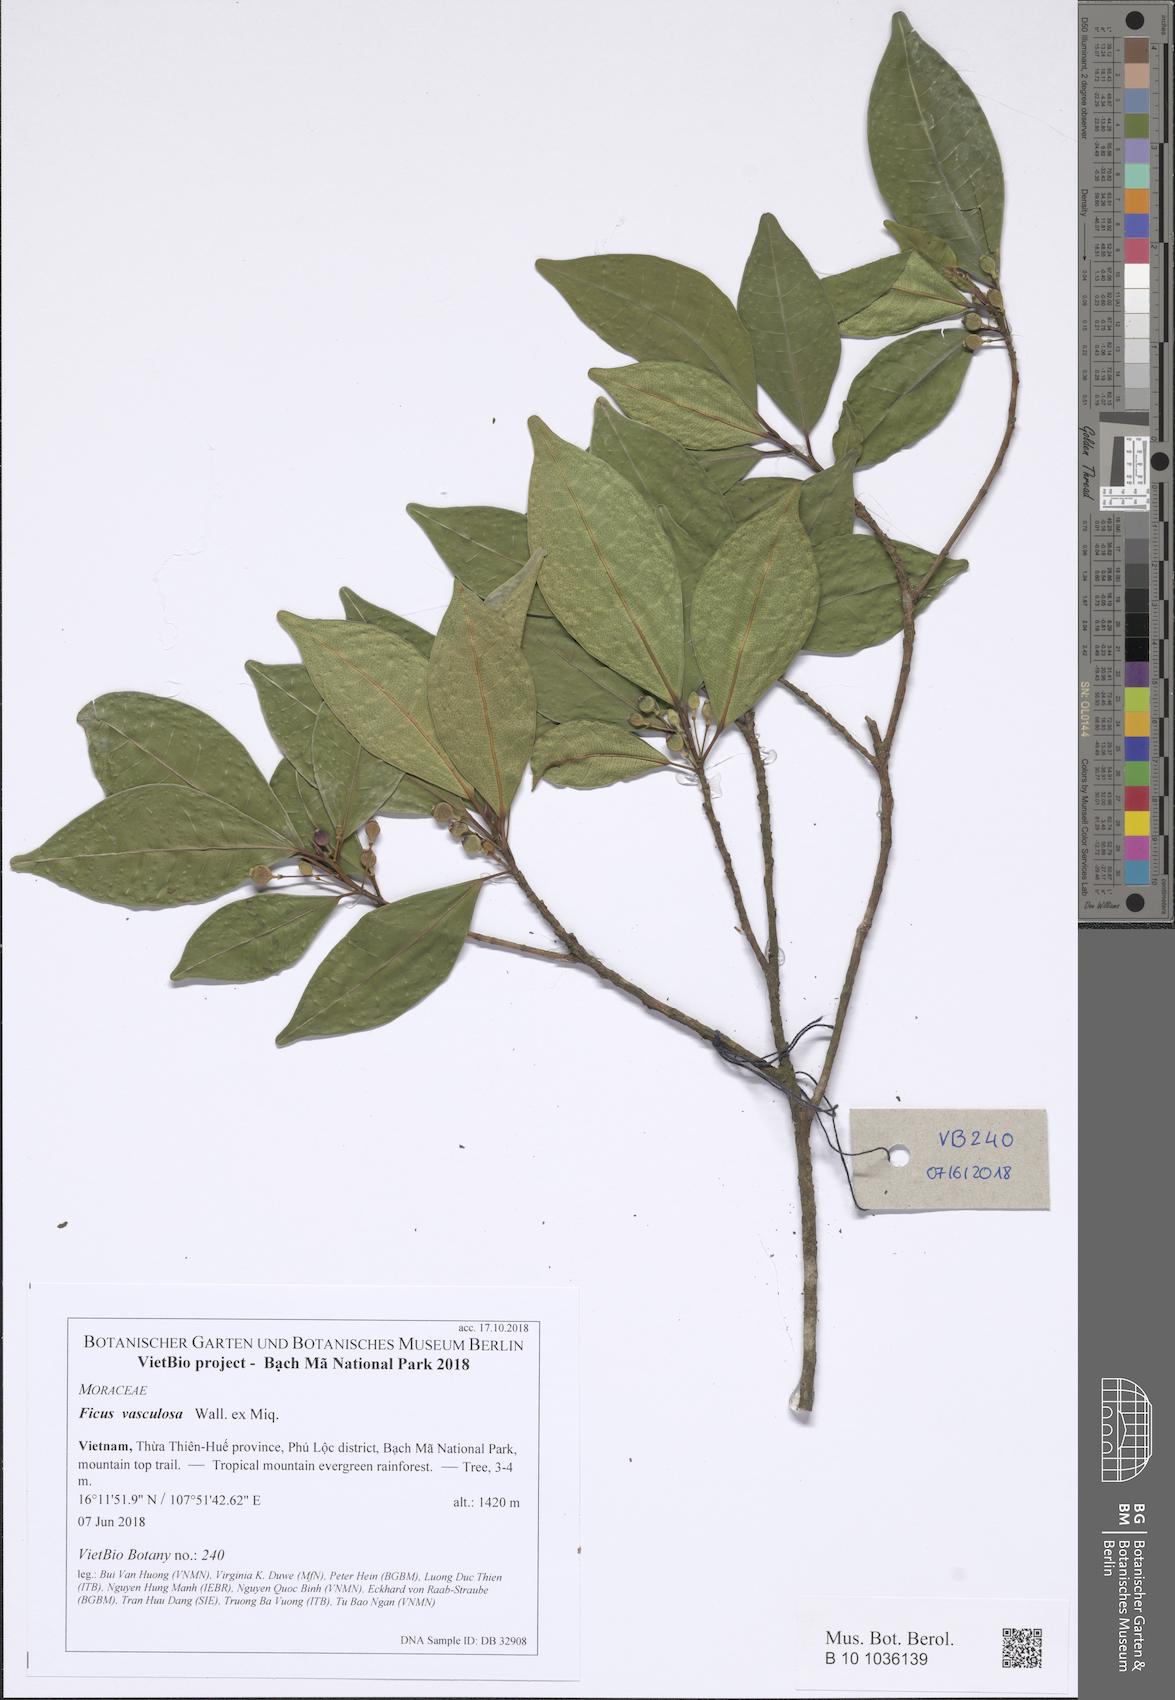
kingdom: Plantae
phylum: Tracheophyta
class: Magnoliopsida
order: Rosales
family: Moraceae
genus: Ficus
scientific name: Ficus vasculosa
